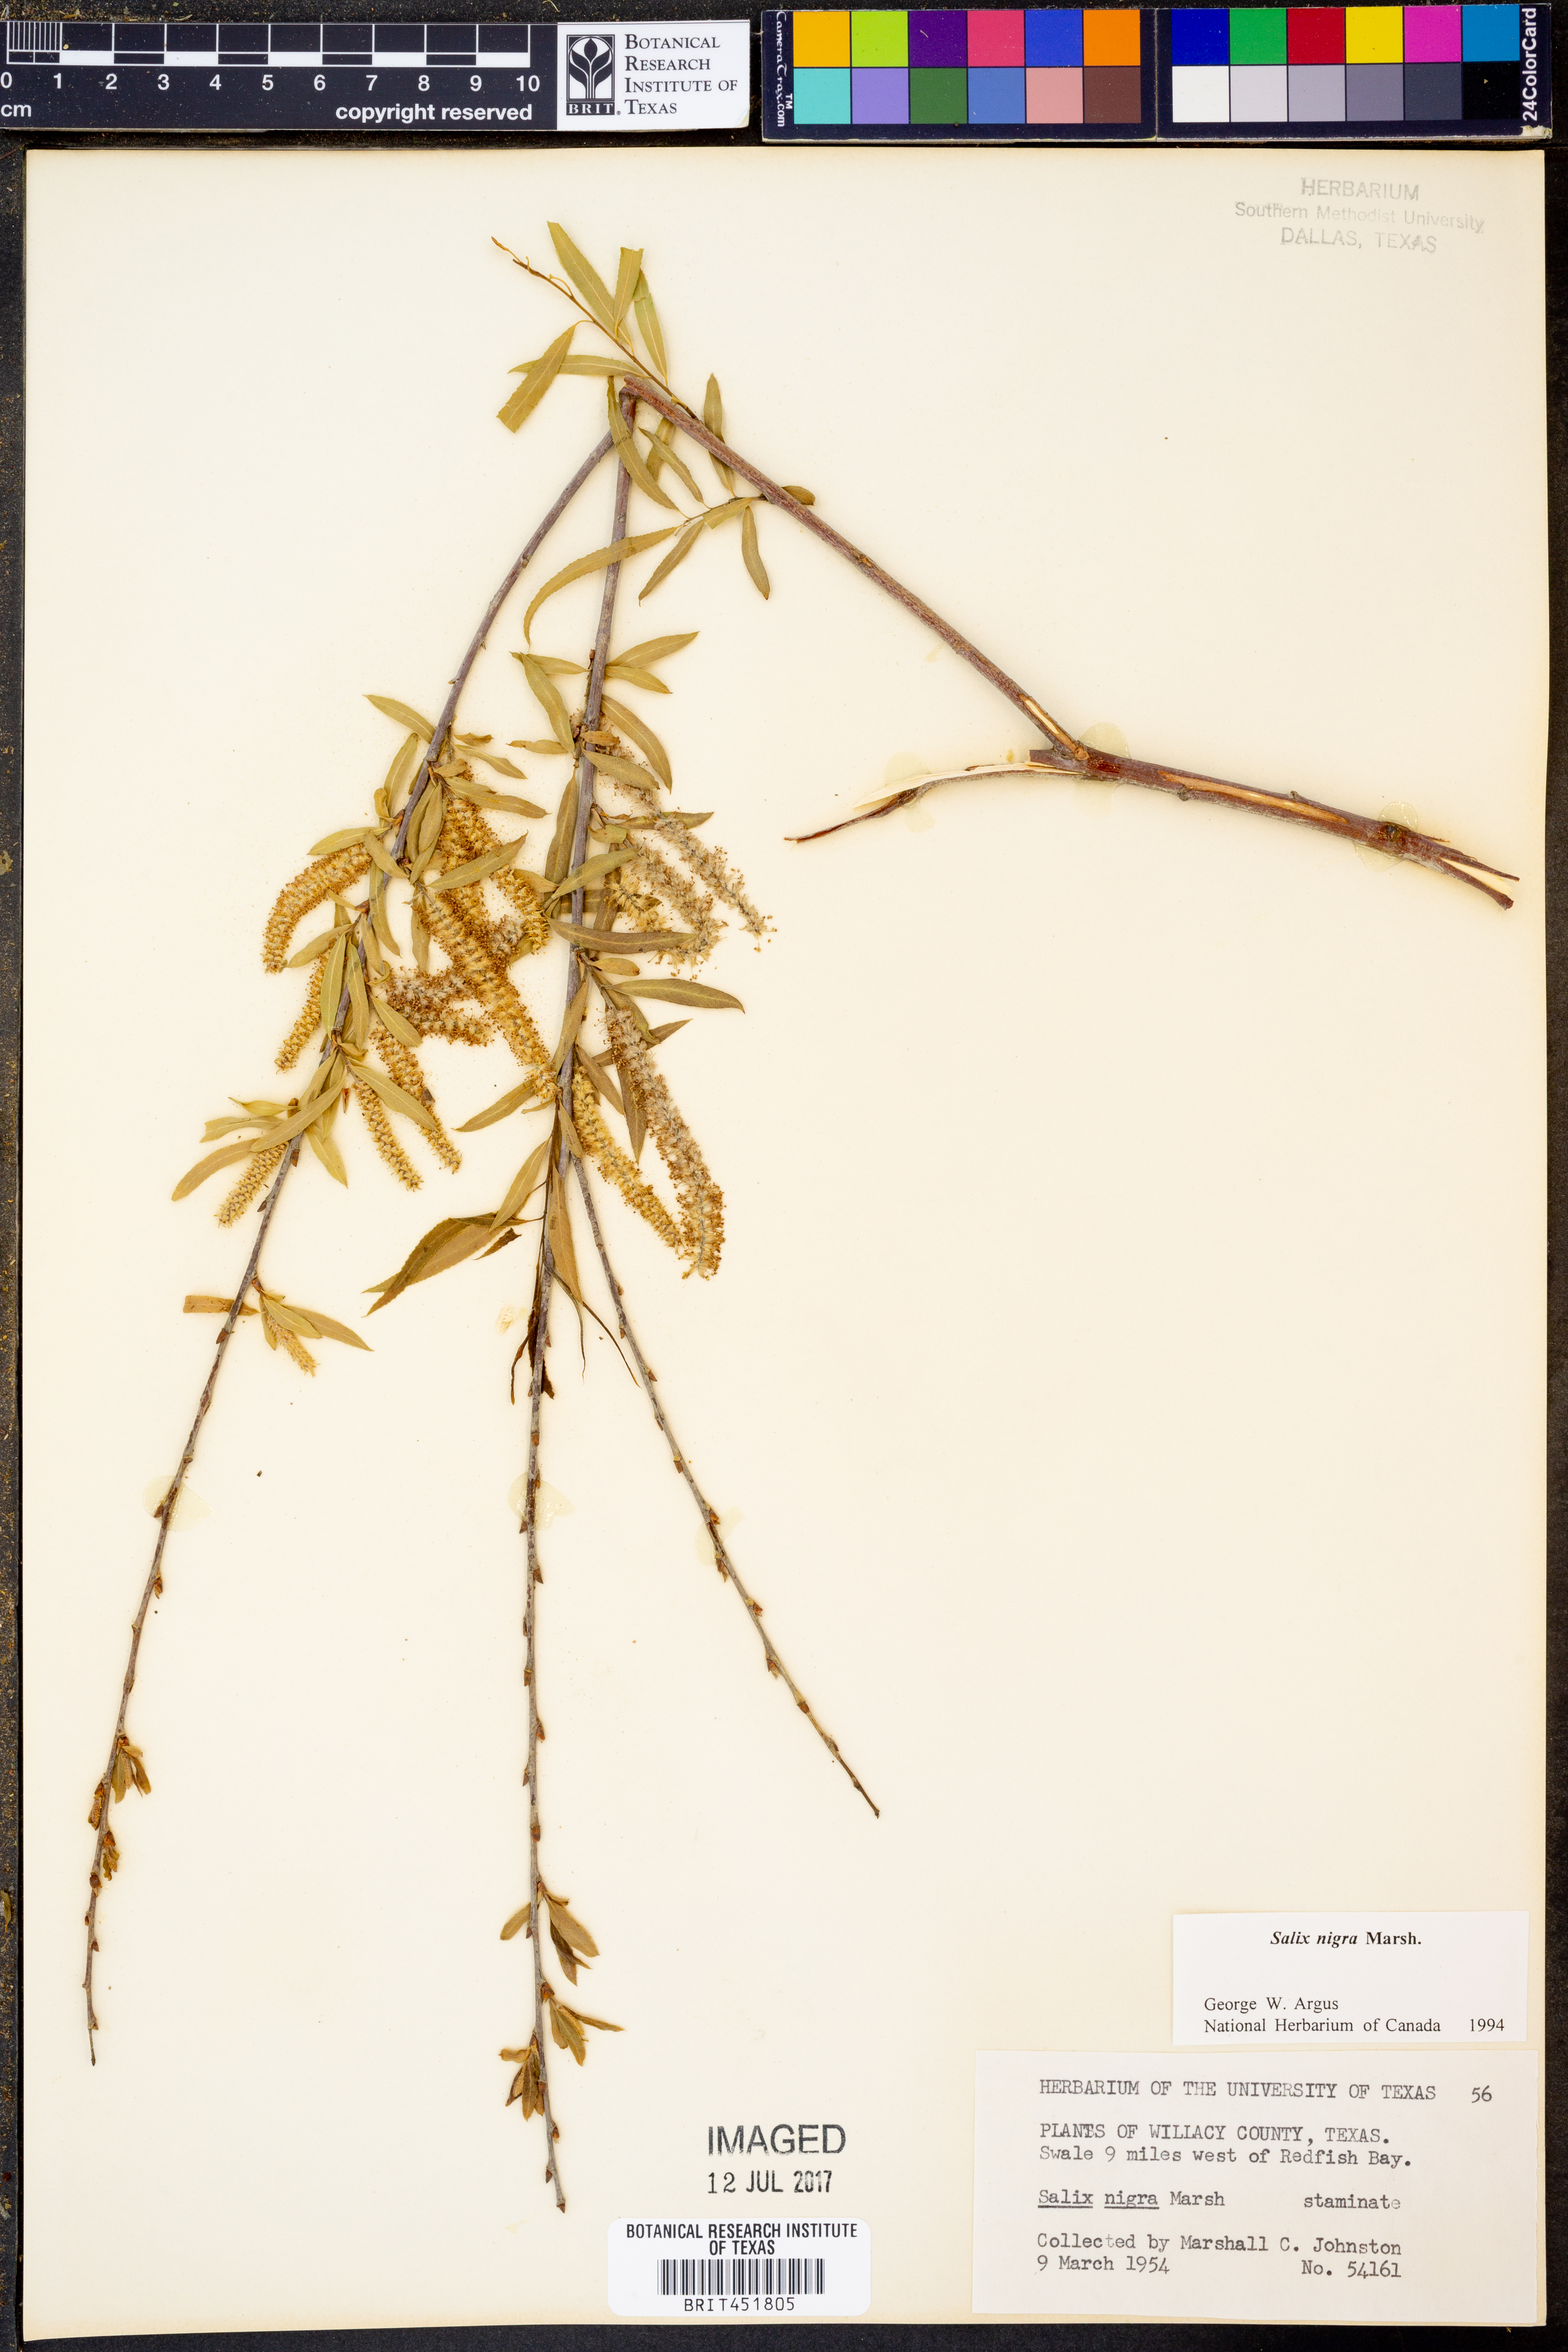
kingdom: Plantae
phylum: Tracheophyta
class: Magnoliopsida
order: Malpighiales
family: Salicaceae
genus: Salix
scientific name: Salix nigra
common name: Black willow
